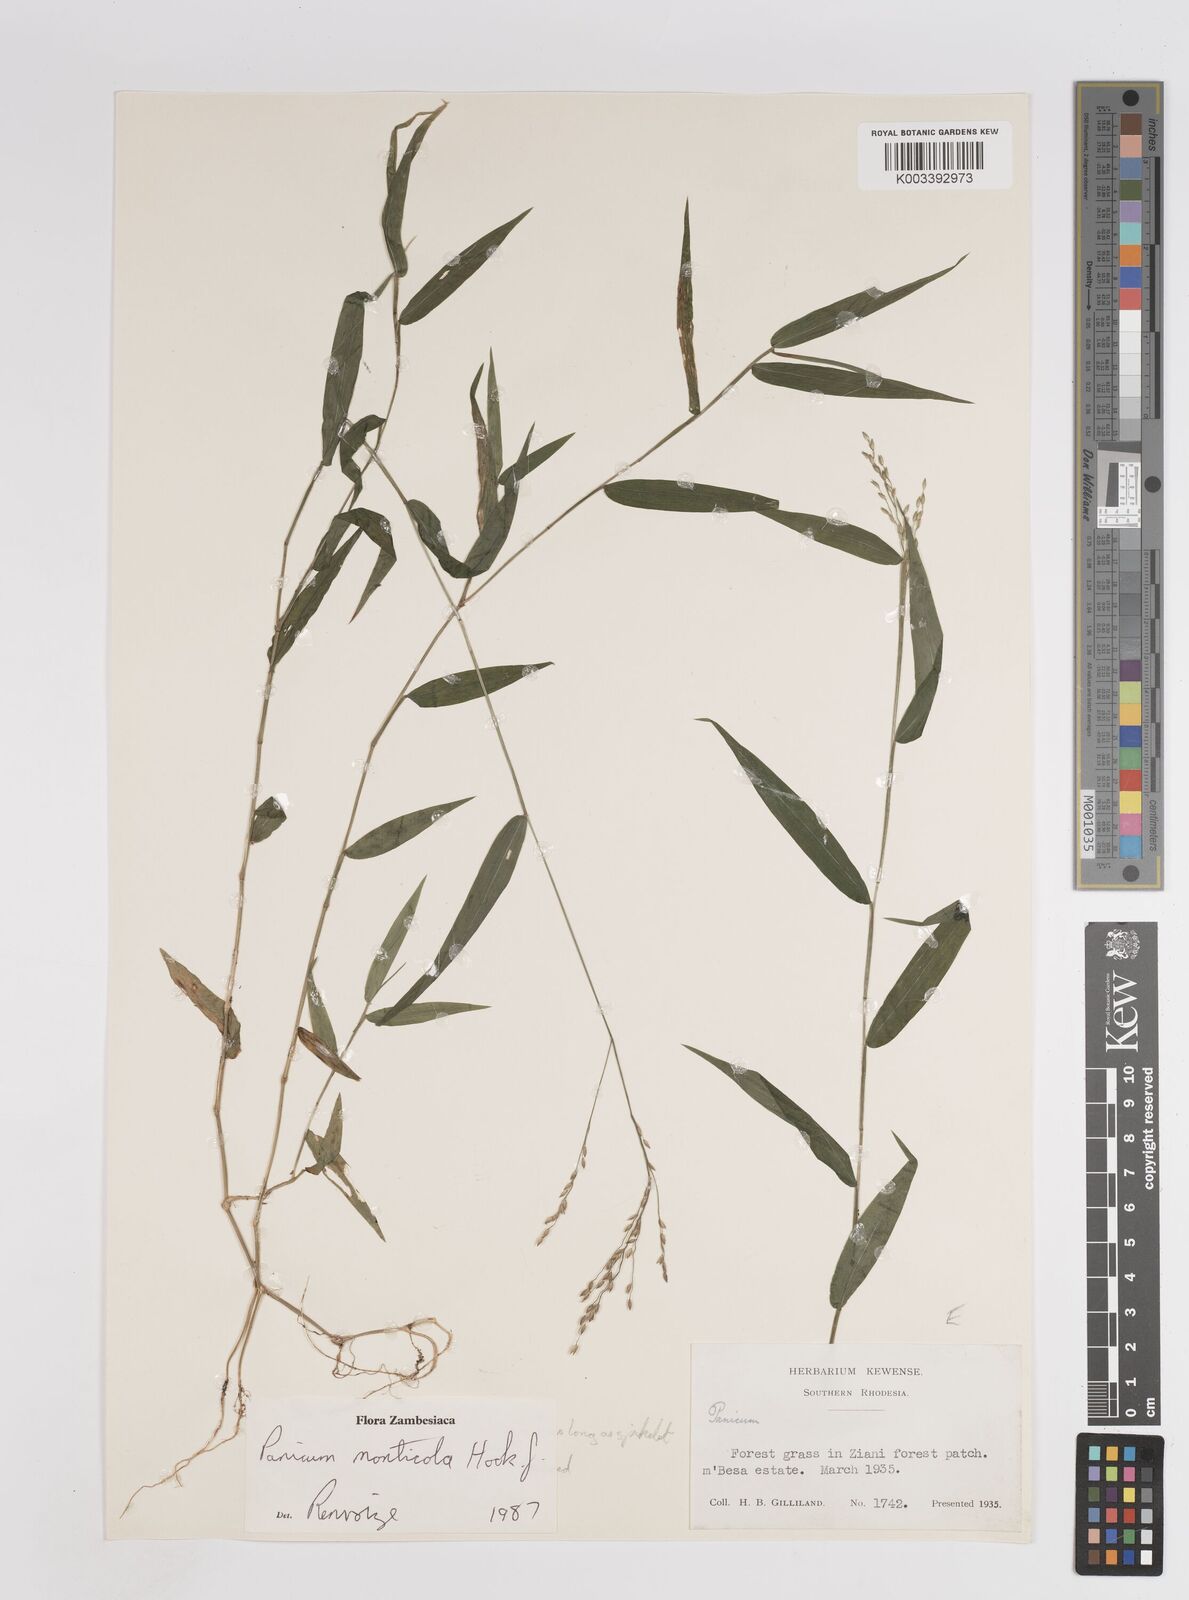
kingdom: Plantae
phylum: Tracheophyta
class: Liliopsida
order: Poales
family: Poaceae
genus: Panicum
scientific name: Panicum monticola
